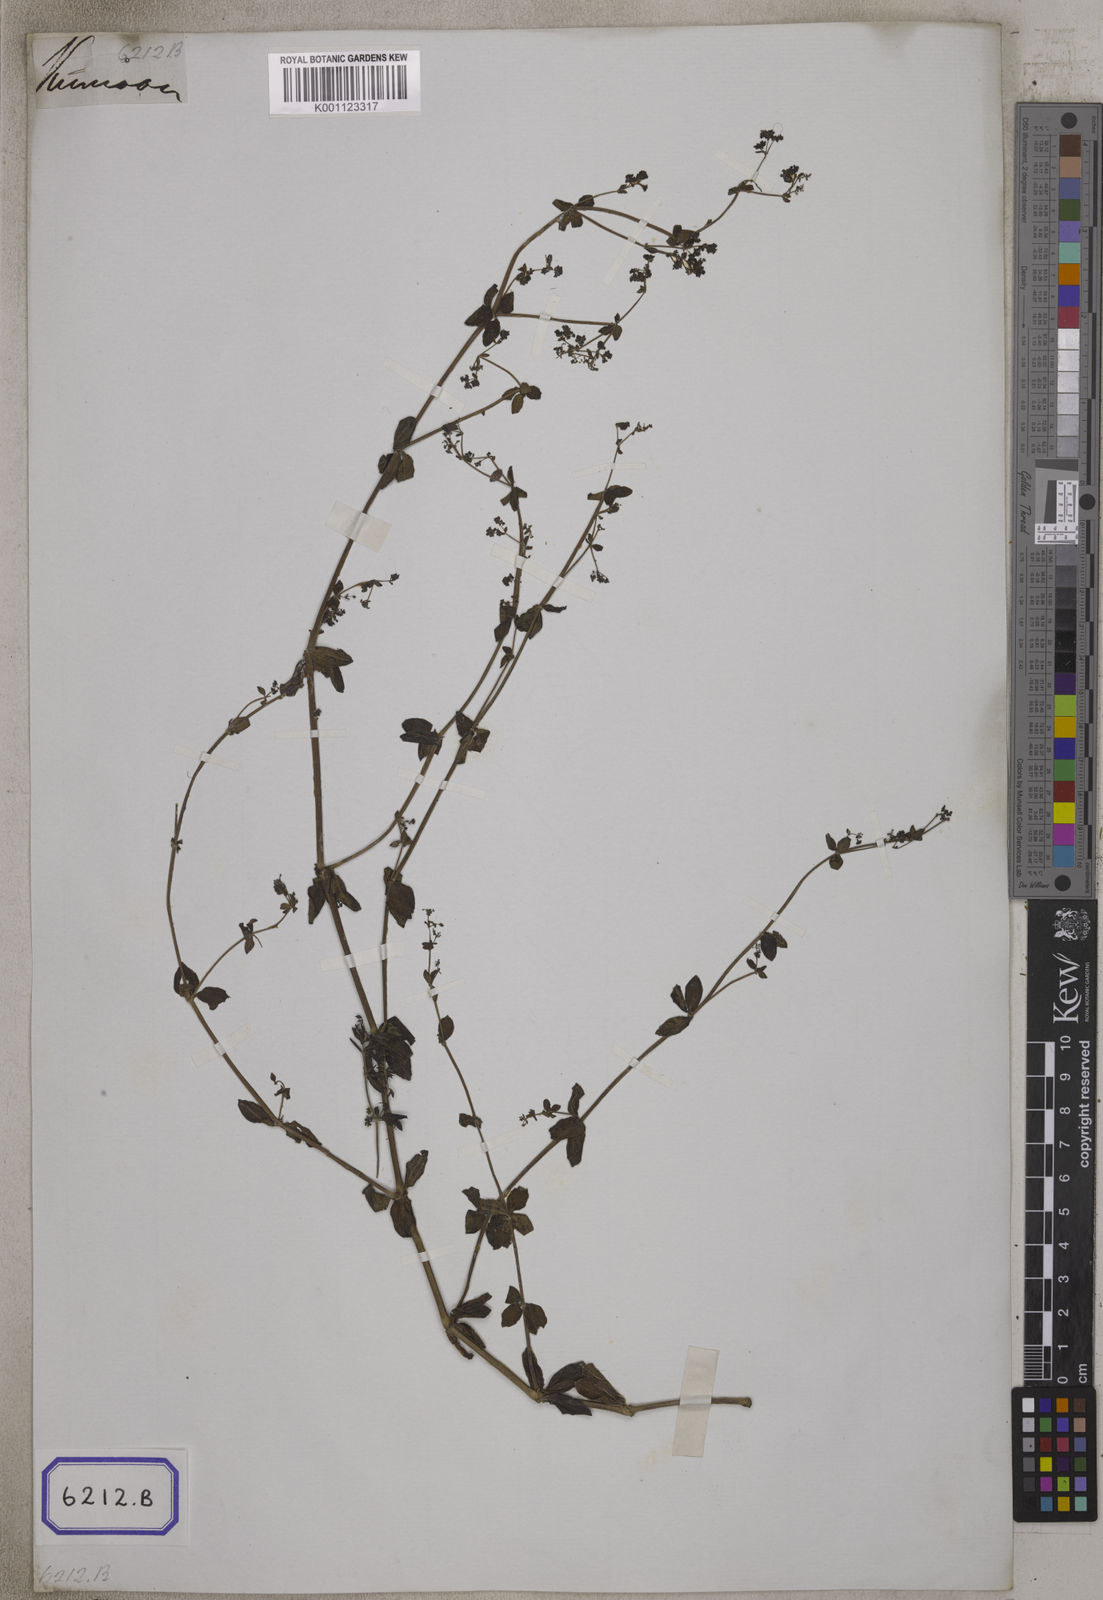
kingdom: Plantae
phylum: Tracheophyta
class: Magnoliopsida
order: Gentianales
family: Rubiaceae
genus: Galium
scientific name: Galium elegans
